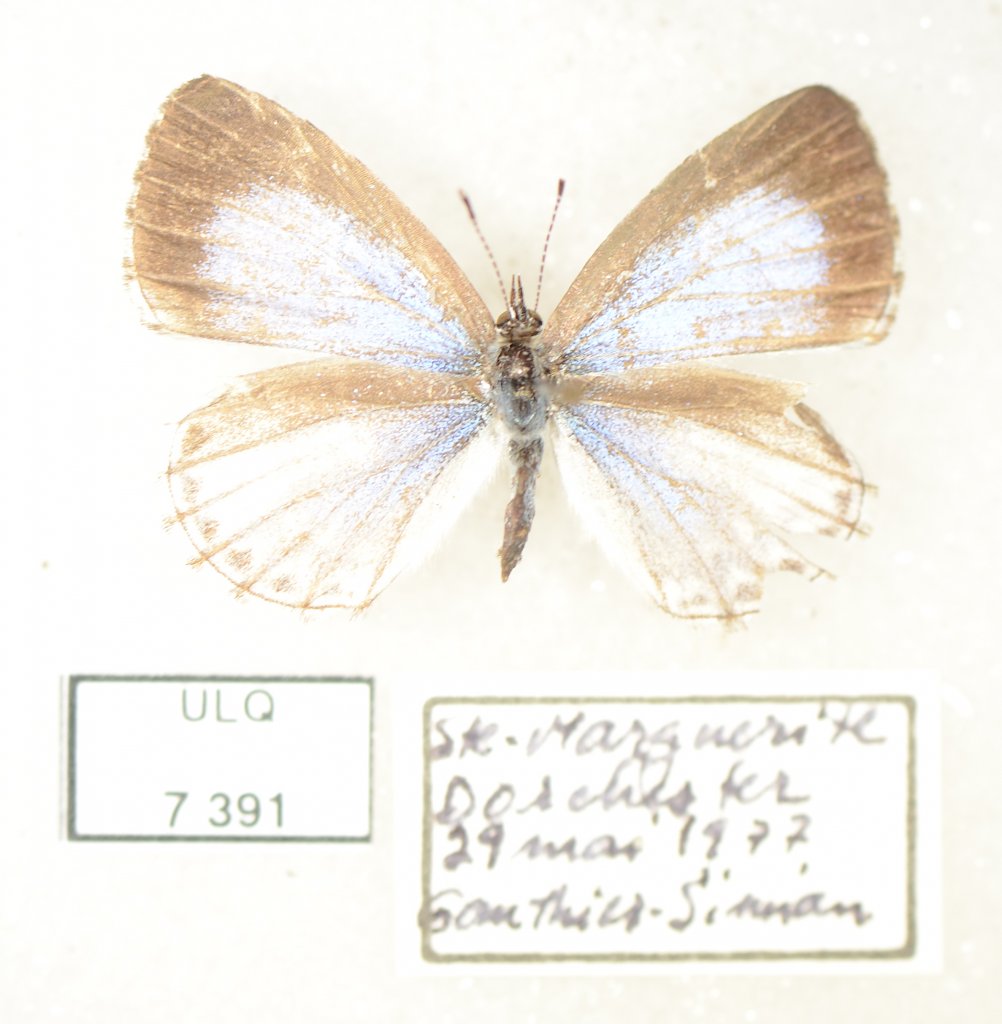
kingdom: Animalia
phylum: Arthropoda
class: Insecta
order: Lepidoptera
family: Lycaenidae
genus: Celastrina
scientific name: Celastrina lucia
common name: Northern Spring Azure
